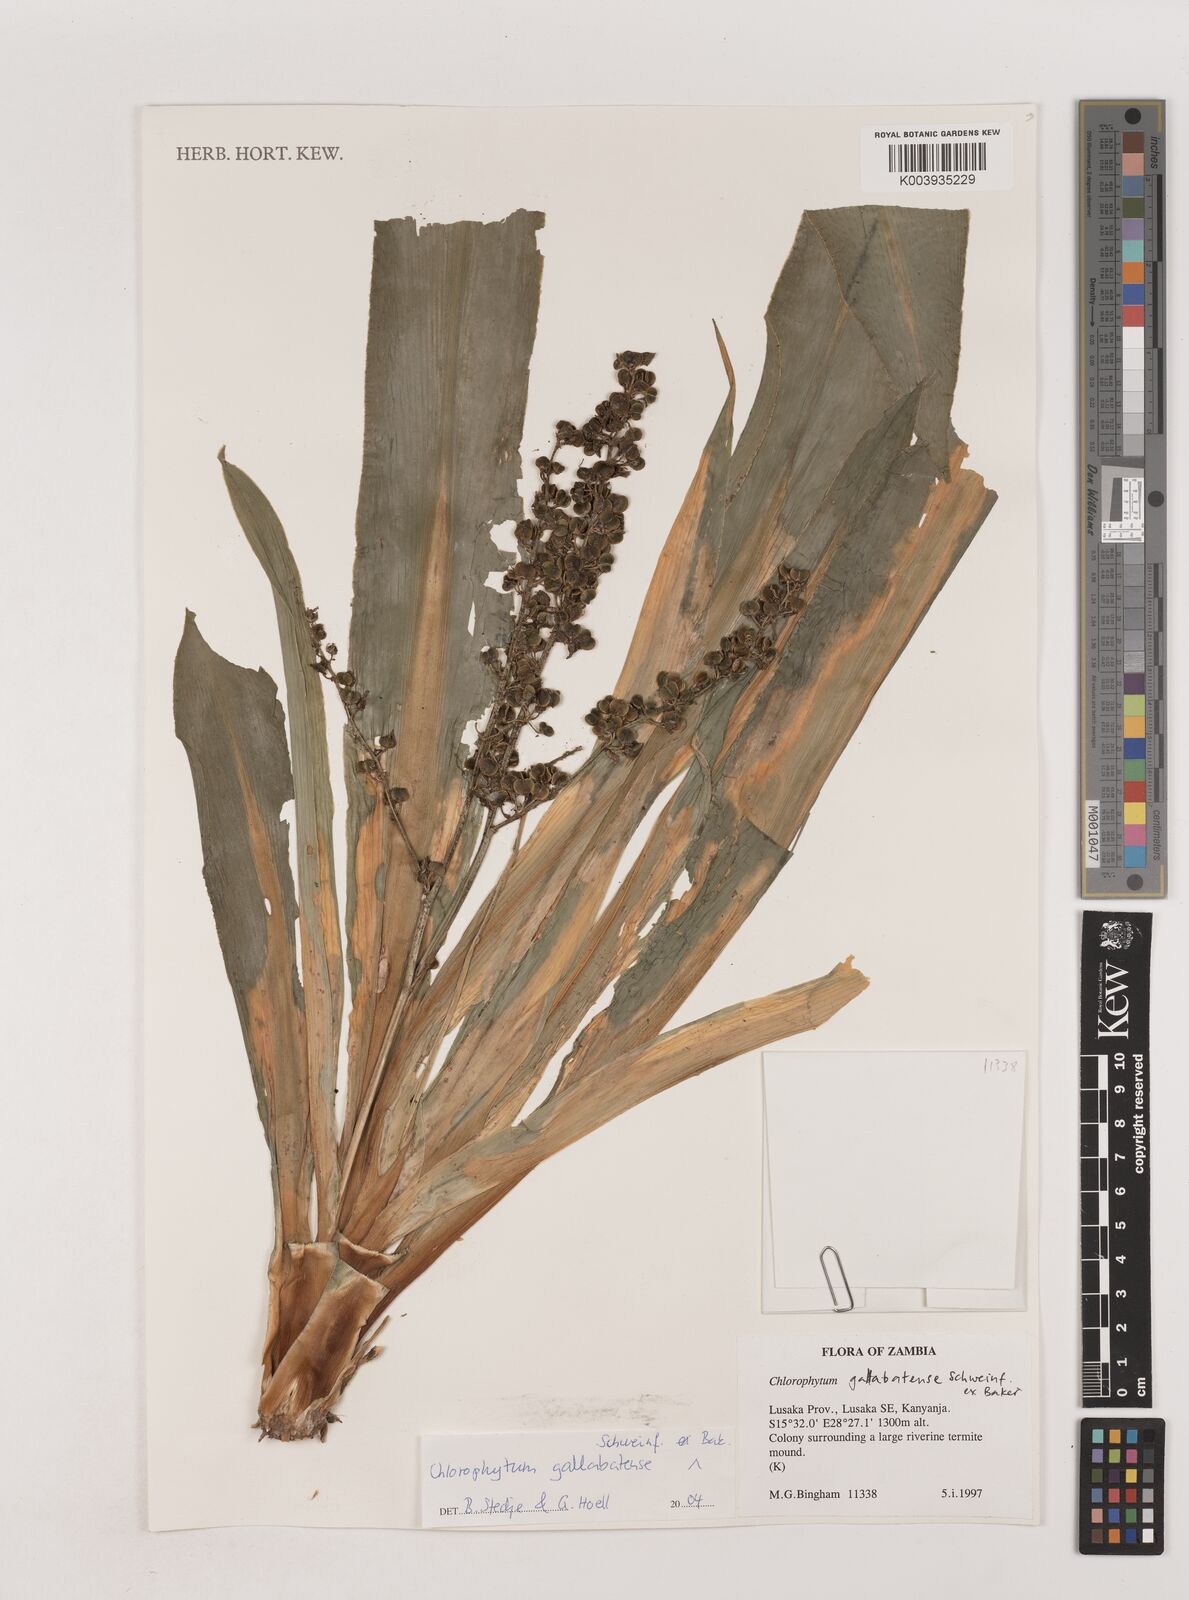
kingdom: Plantae
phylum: Tracheophyta
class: Liliopsida
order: Asparagales
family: Asparagaceae
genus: Chlorophytum
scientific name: Chlorophytum gallabatense
